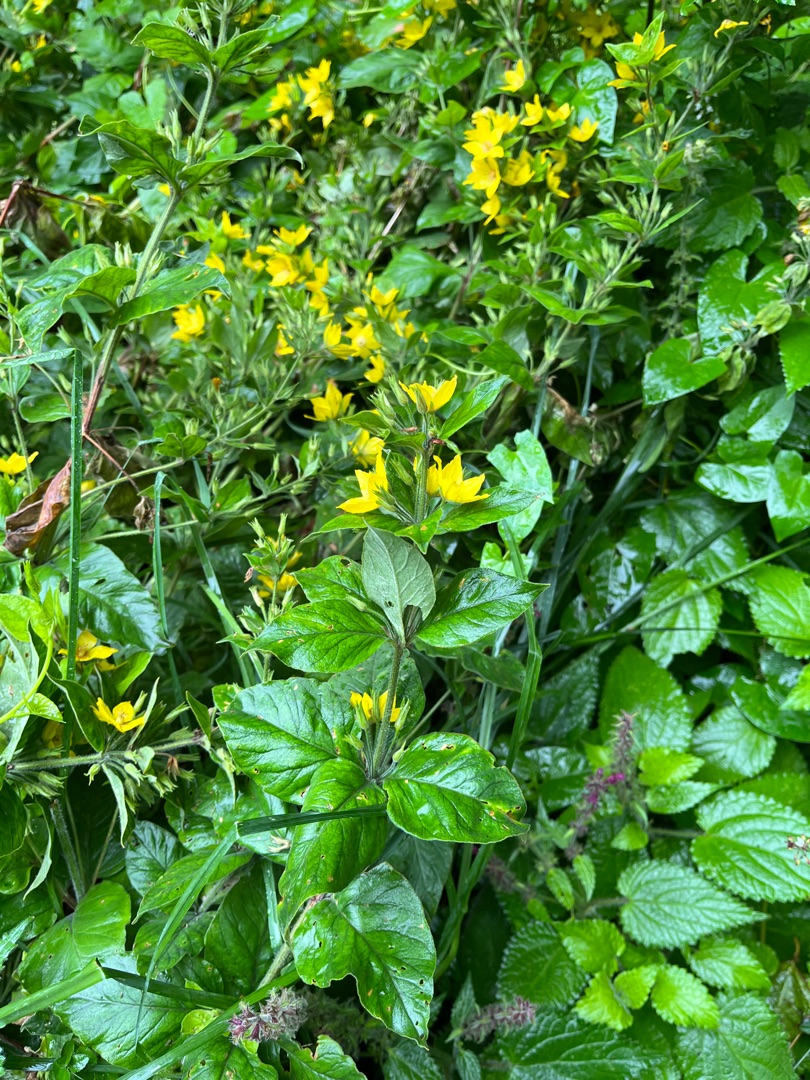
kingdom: Plantae
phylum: Tracheophyta
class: Magnoliopsida
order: Ericales
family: Primulaceae
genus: Lysimachia
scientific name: Lysimachia punctata
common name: Prikbladet fredløs
